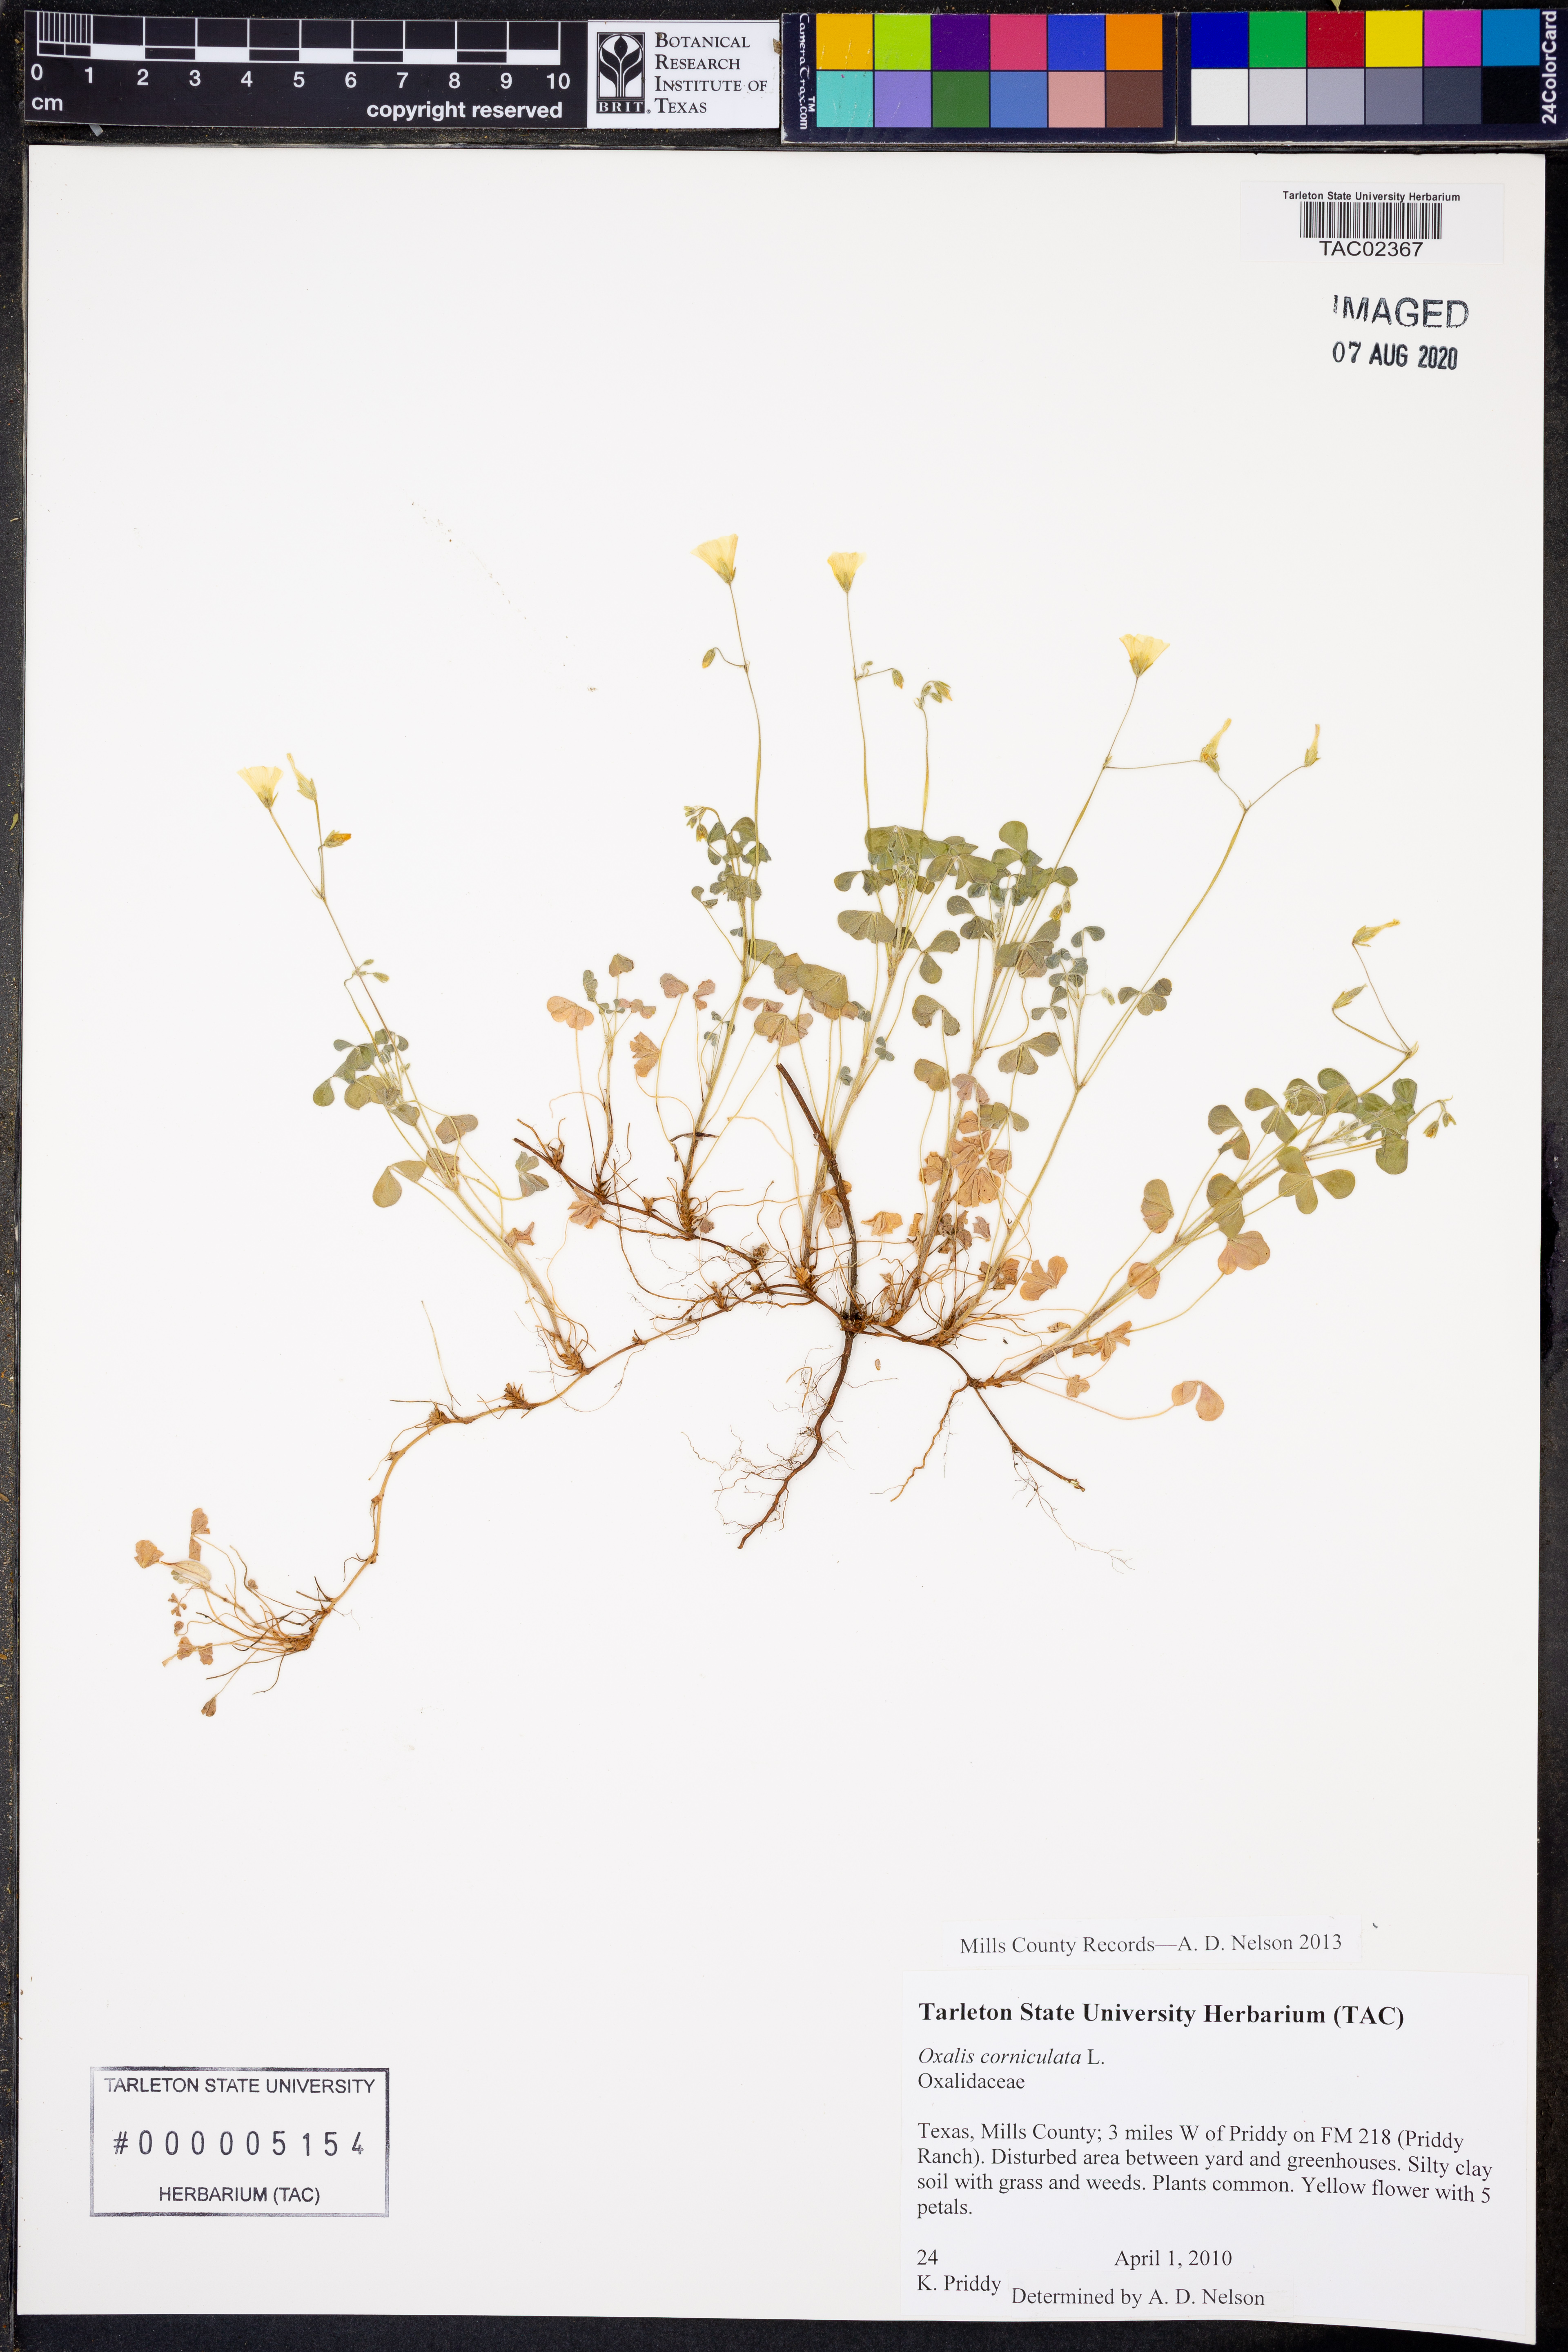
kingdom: Plantae
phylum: Tracheophyta
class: Magnoliopsida
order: Oxalidales
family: Oxalidaceae
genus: Oxalis
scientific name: Oxalis corniculata
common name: Procumbent yellow-sorrel
